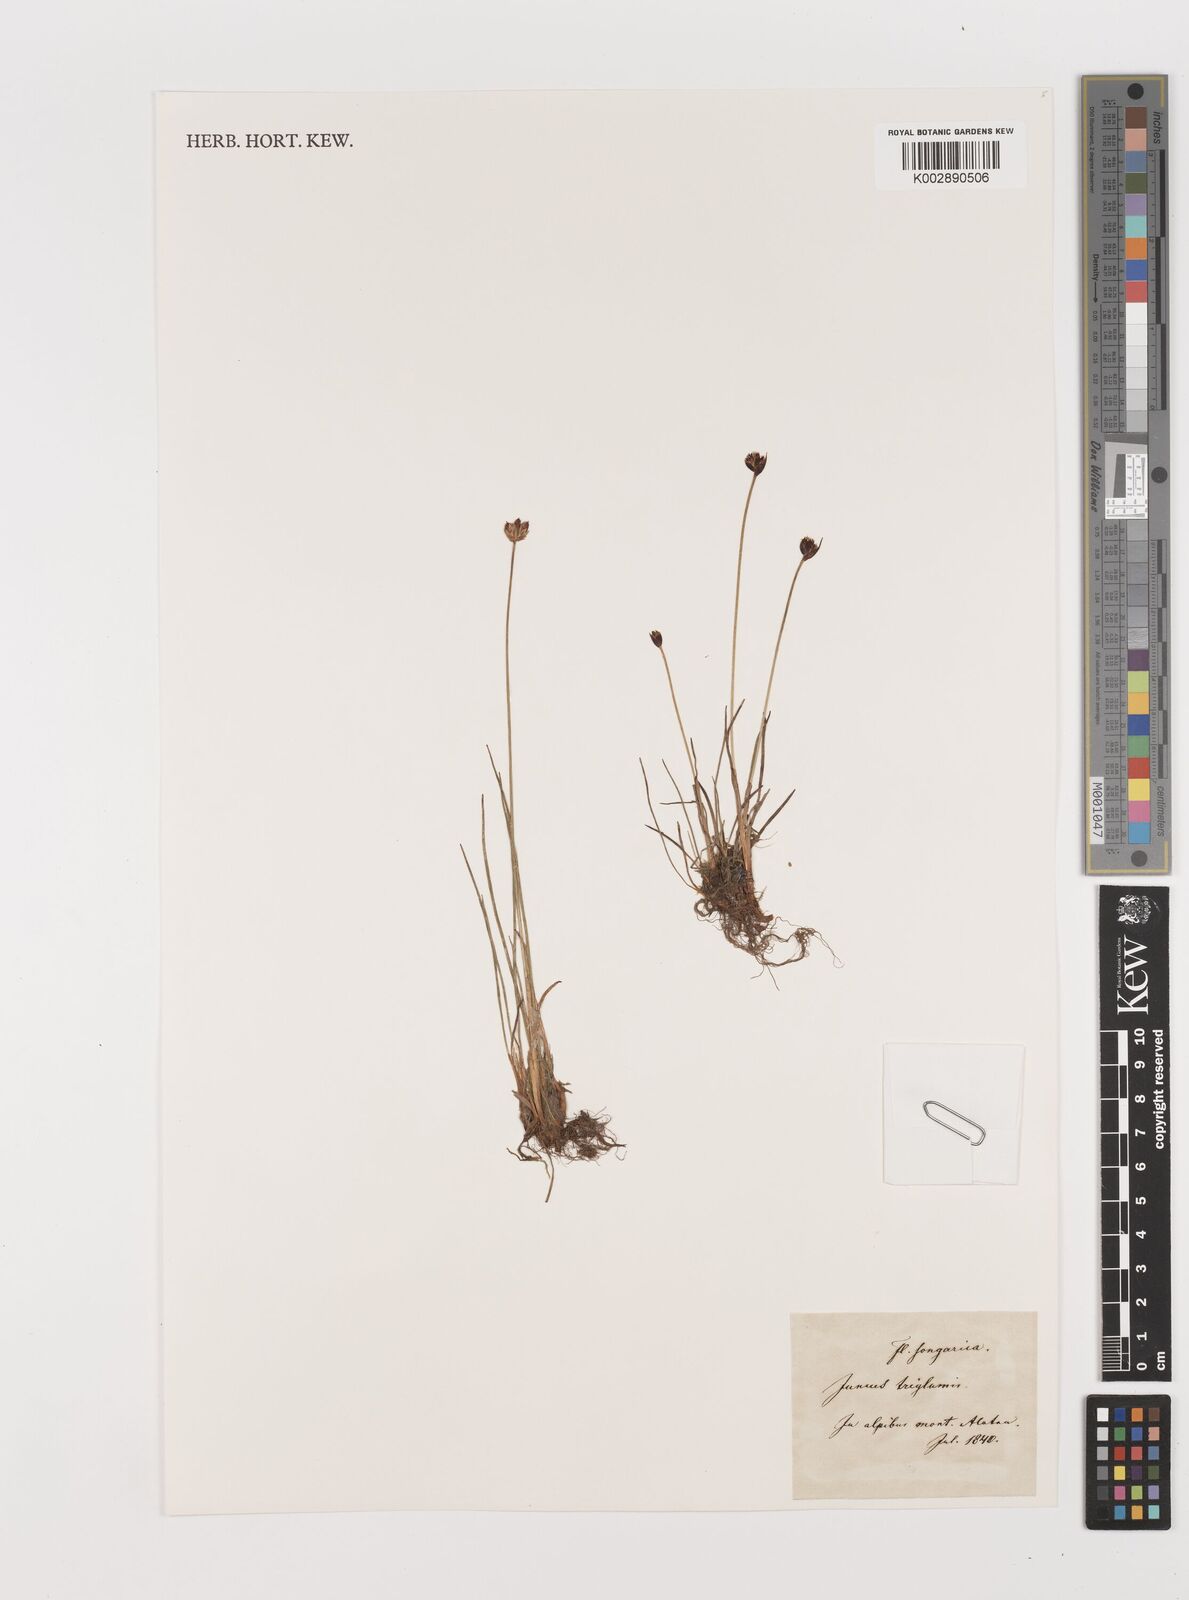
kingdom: Plantae
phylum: Tracheophyta
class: Liliopsida
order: Poales
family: Juncaceae
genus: Juncus
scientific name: Juncus triglumis
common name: Three-flowered rush
